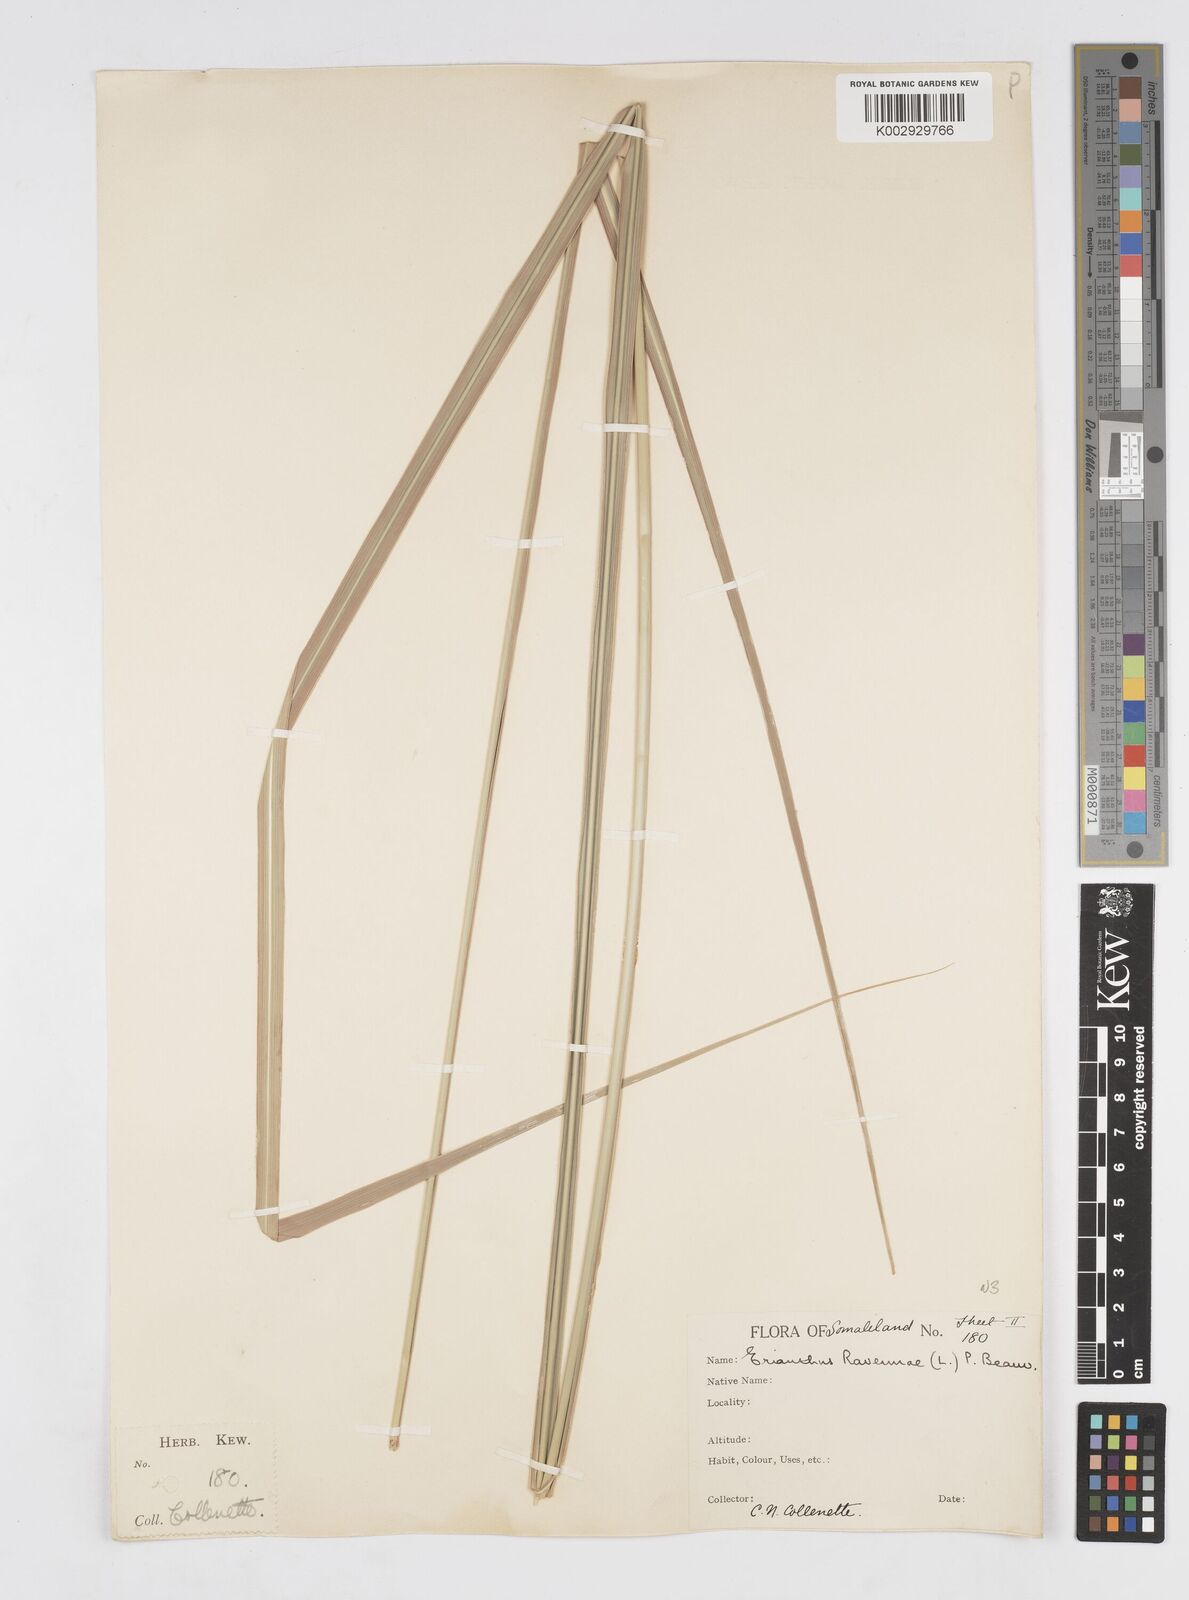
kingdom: Plantae
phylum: Tracheophyta
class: Liliopsida
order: Poales
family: Poaceae
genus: Tripidium
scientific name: Tripidium ravennae
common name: Ravenna grass
